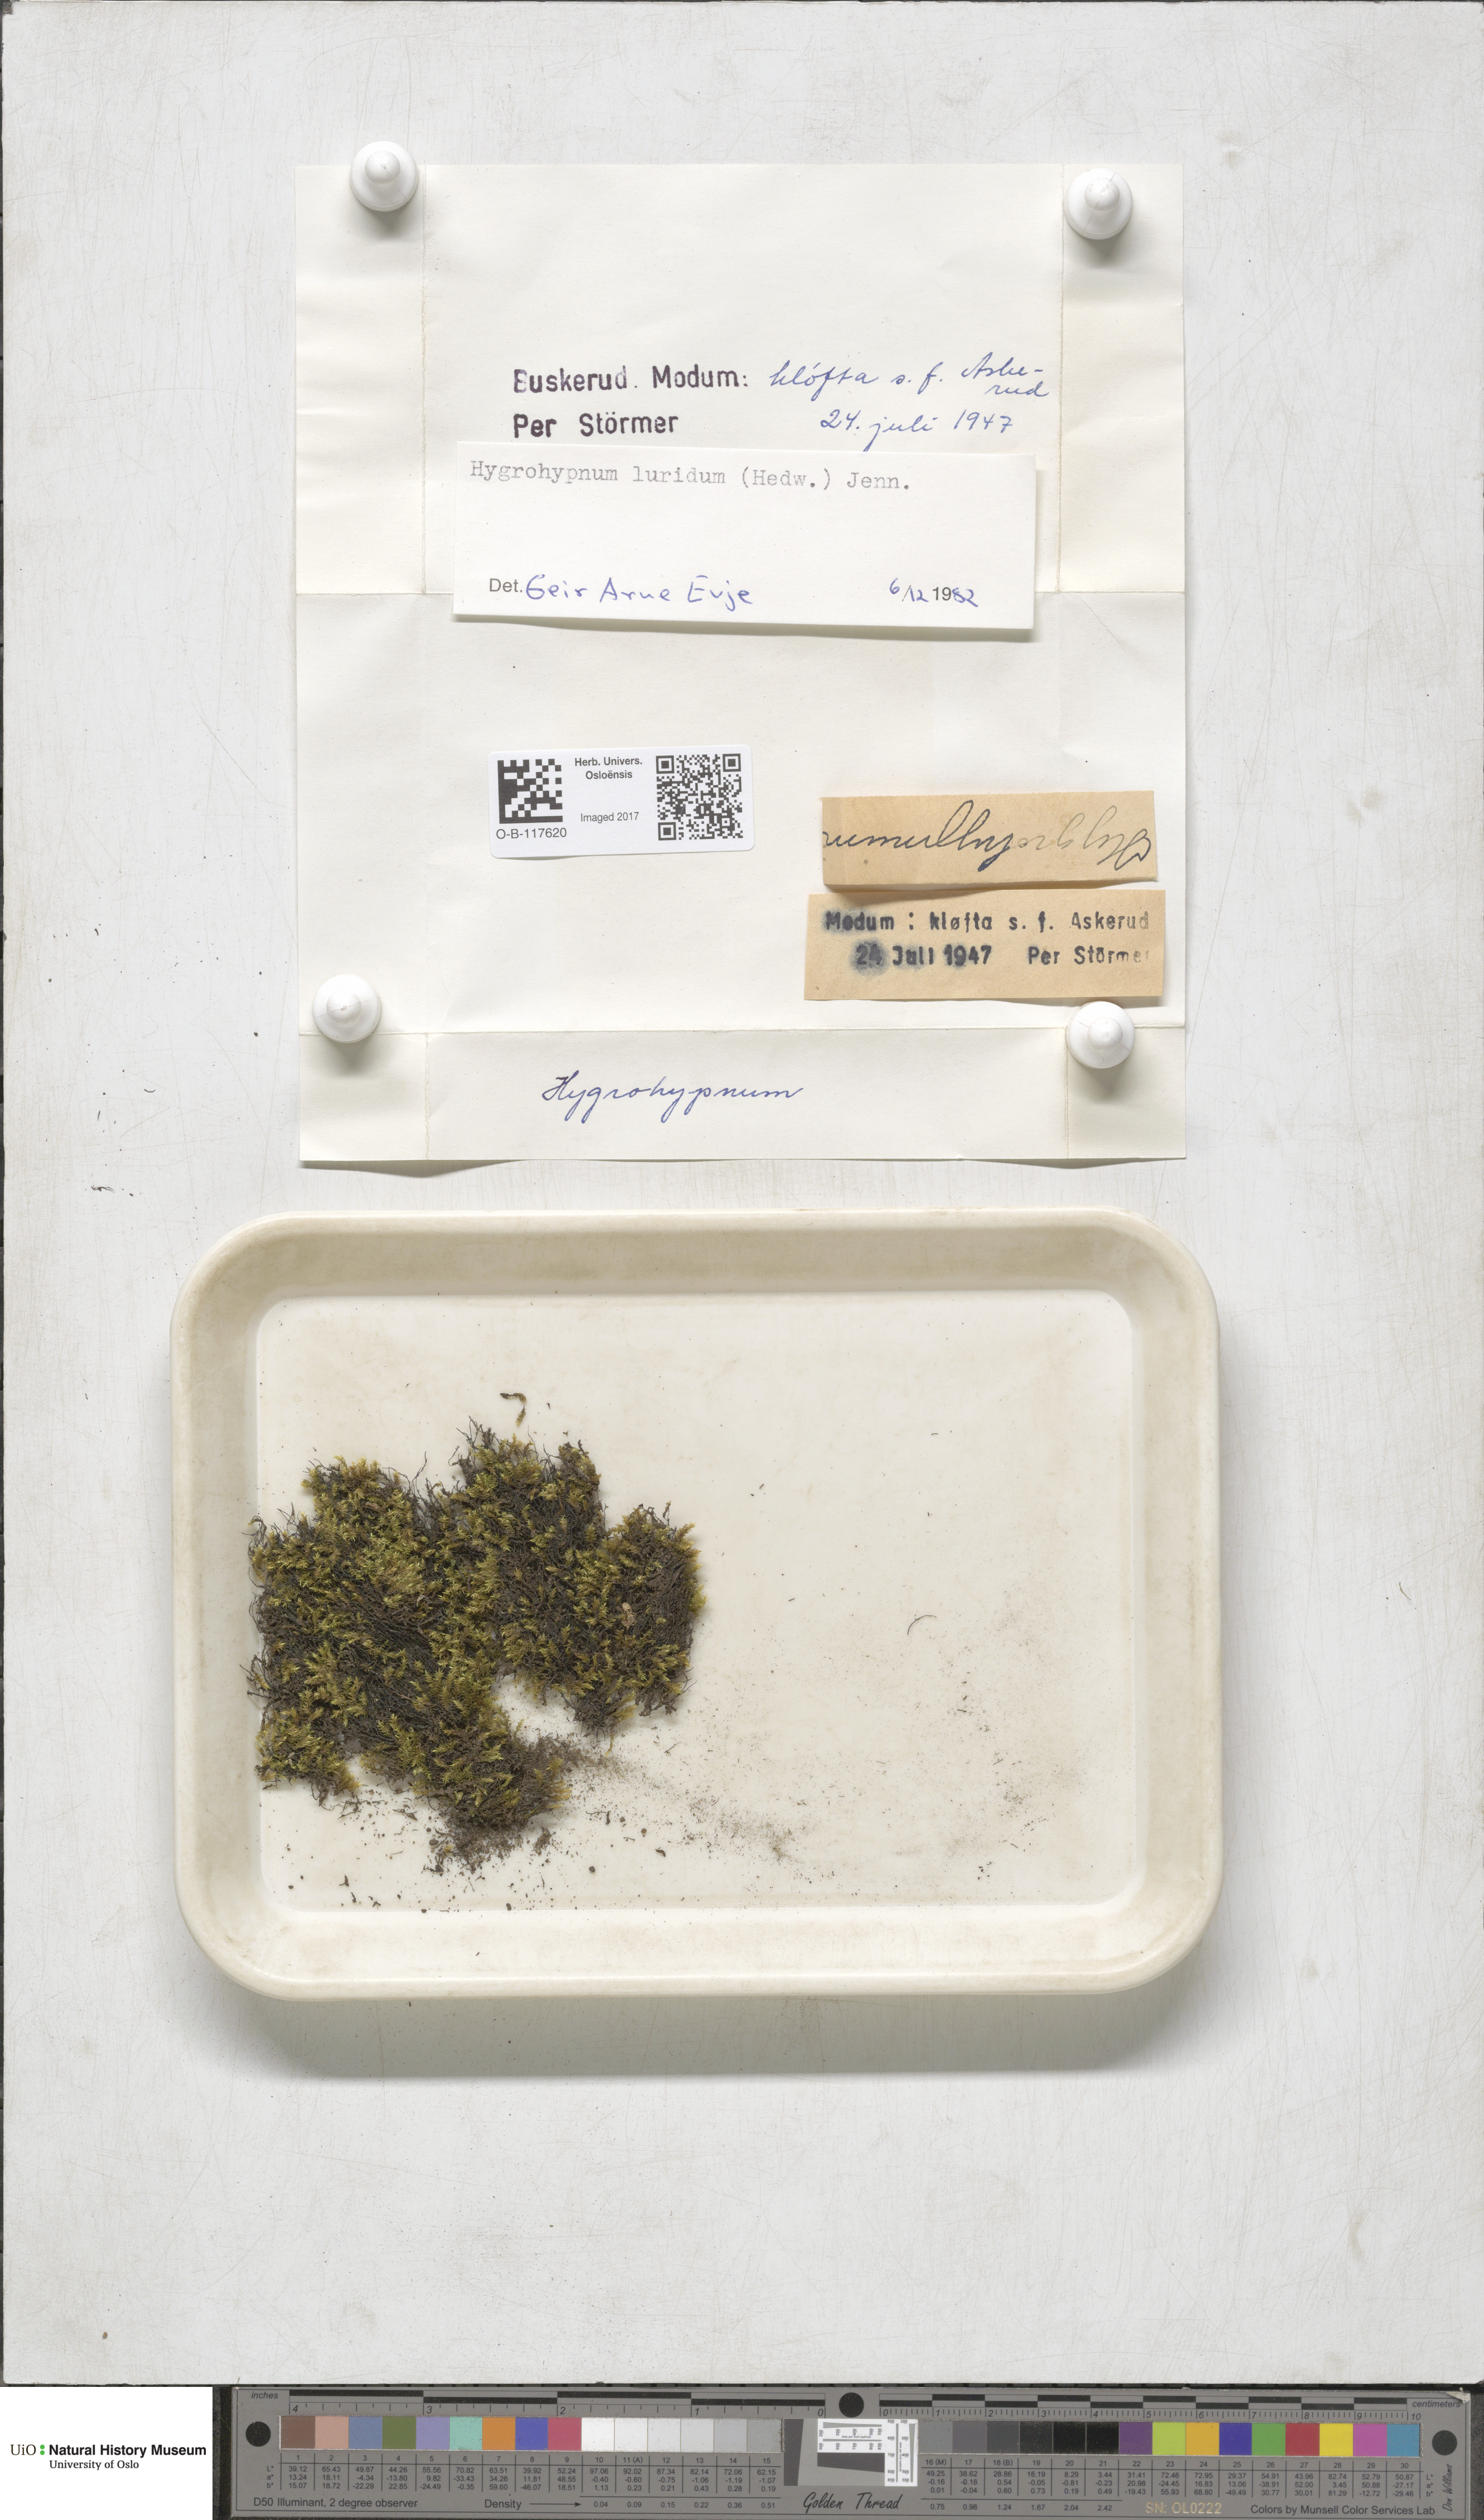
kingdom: Plantae
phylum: Bryophyta
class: Bryopsida
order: Hypnales
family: Amblystegiaceae
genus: Hygrohypnum
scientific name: Hygrohypnum luridum
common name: Drab brook moss
